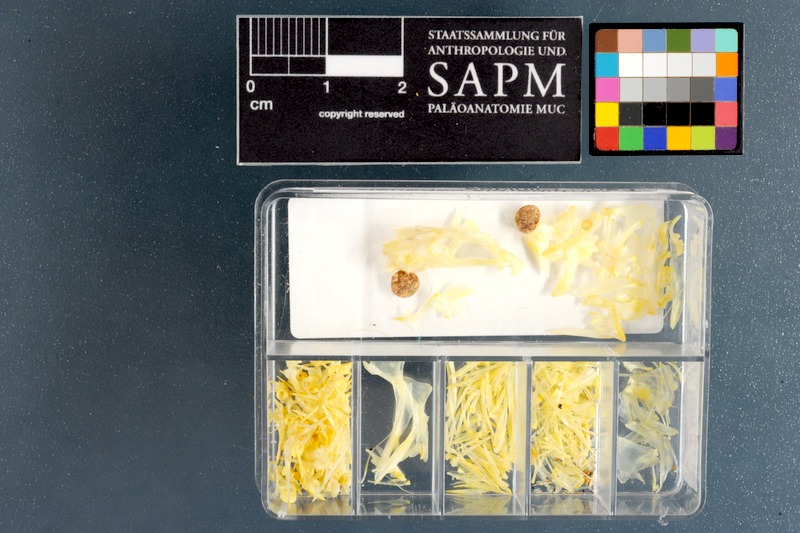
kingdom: Animalia
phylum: Chordata
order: Perciformes
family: Clinidae
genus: Cirrhibarbis
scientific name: Cirrhibarbis capensis
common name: Barbelled klipfish
